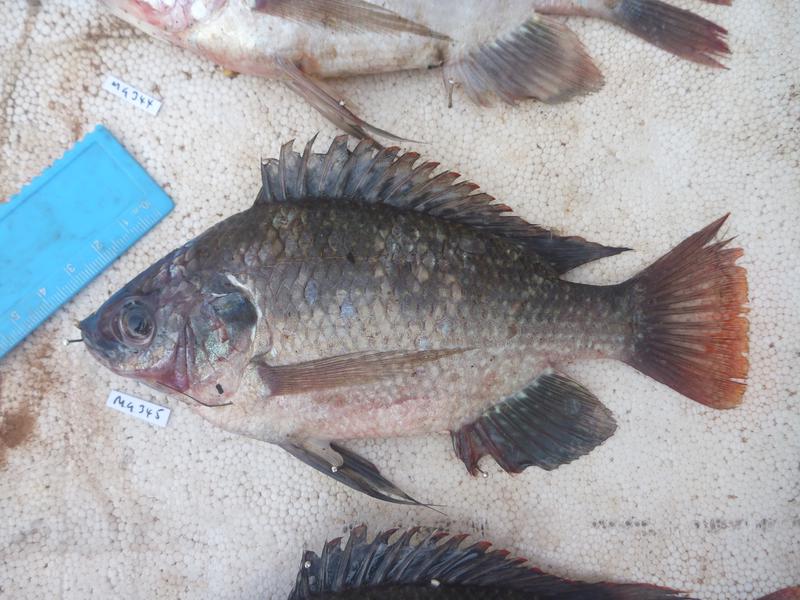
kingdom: Animalia
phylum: Chordata
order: Perciformes
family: Cichlidae
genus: Oreochromis
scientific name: Oreochromis esculentus
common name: Carp
